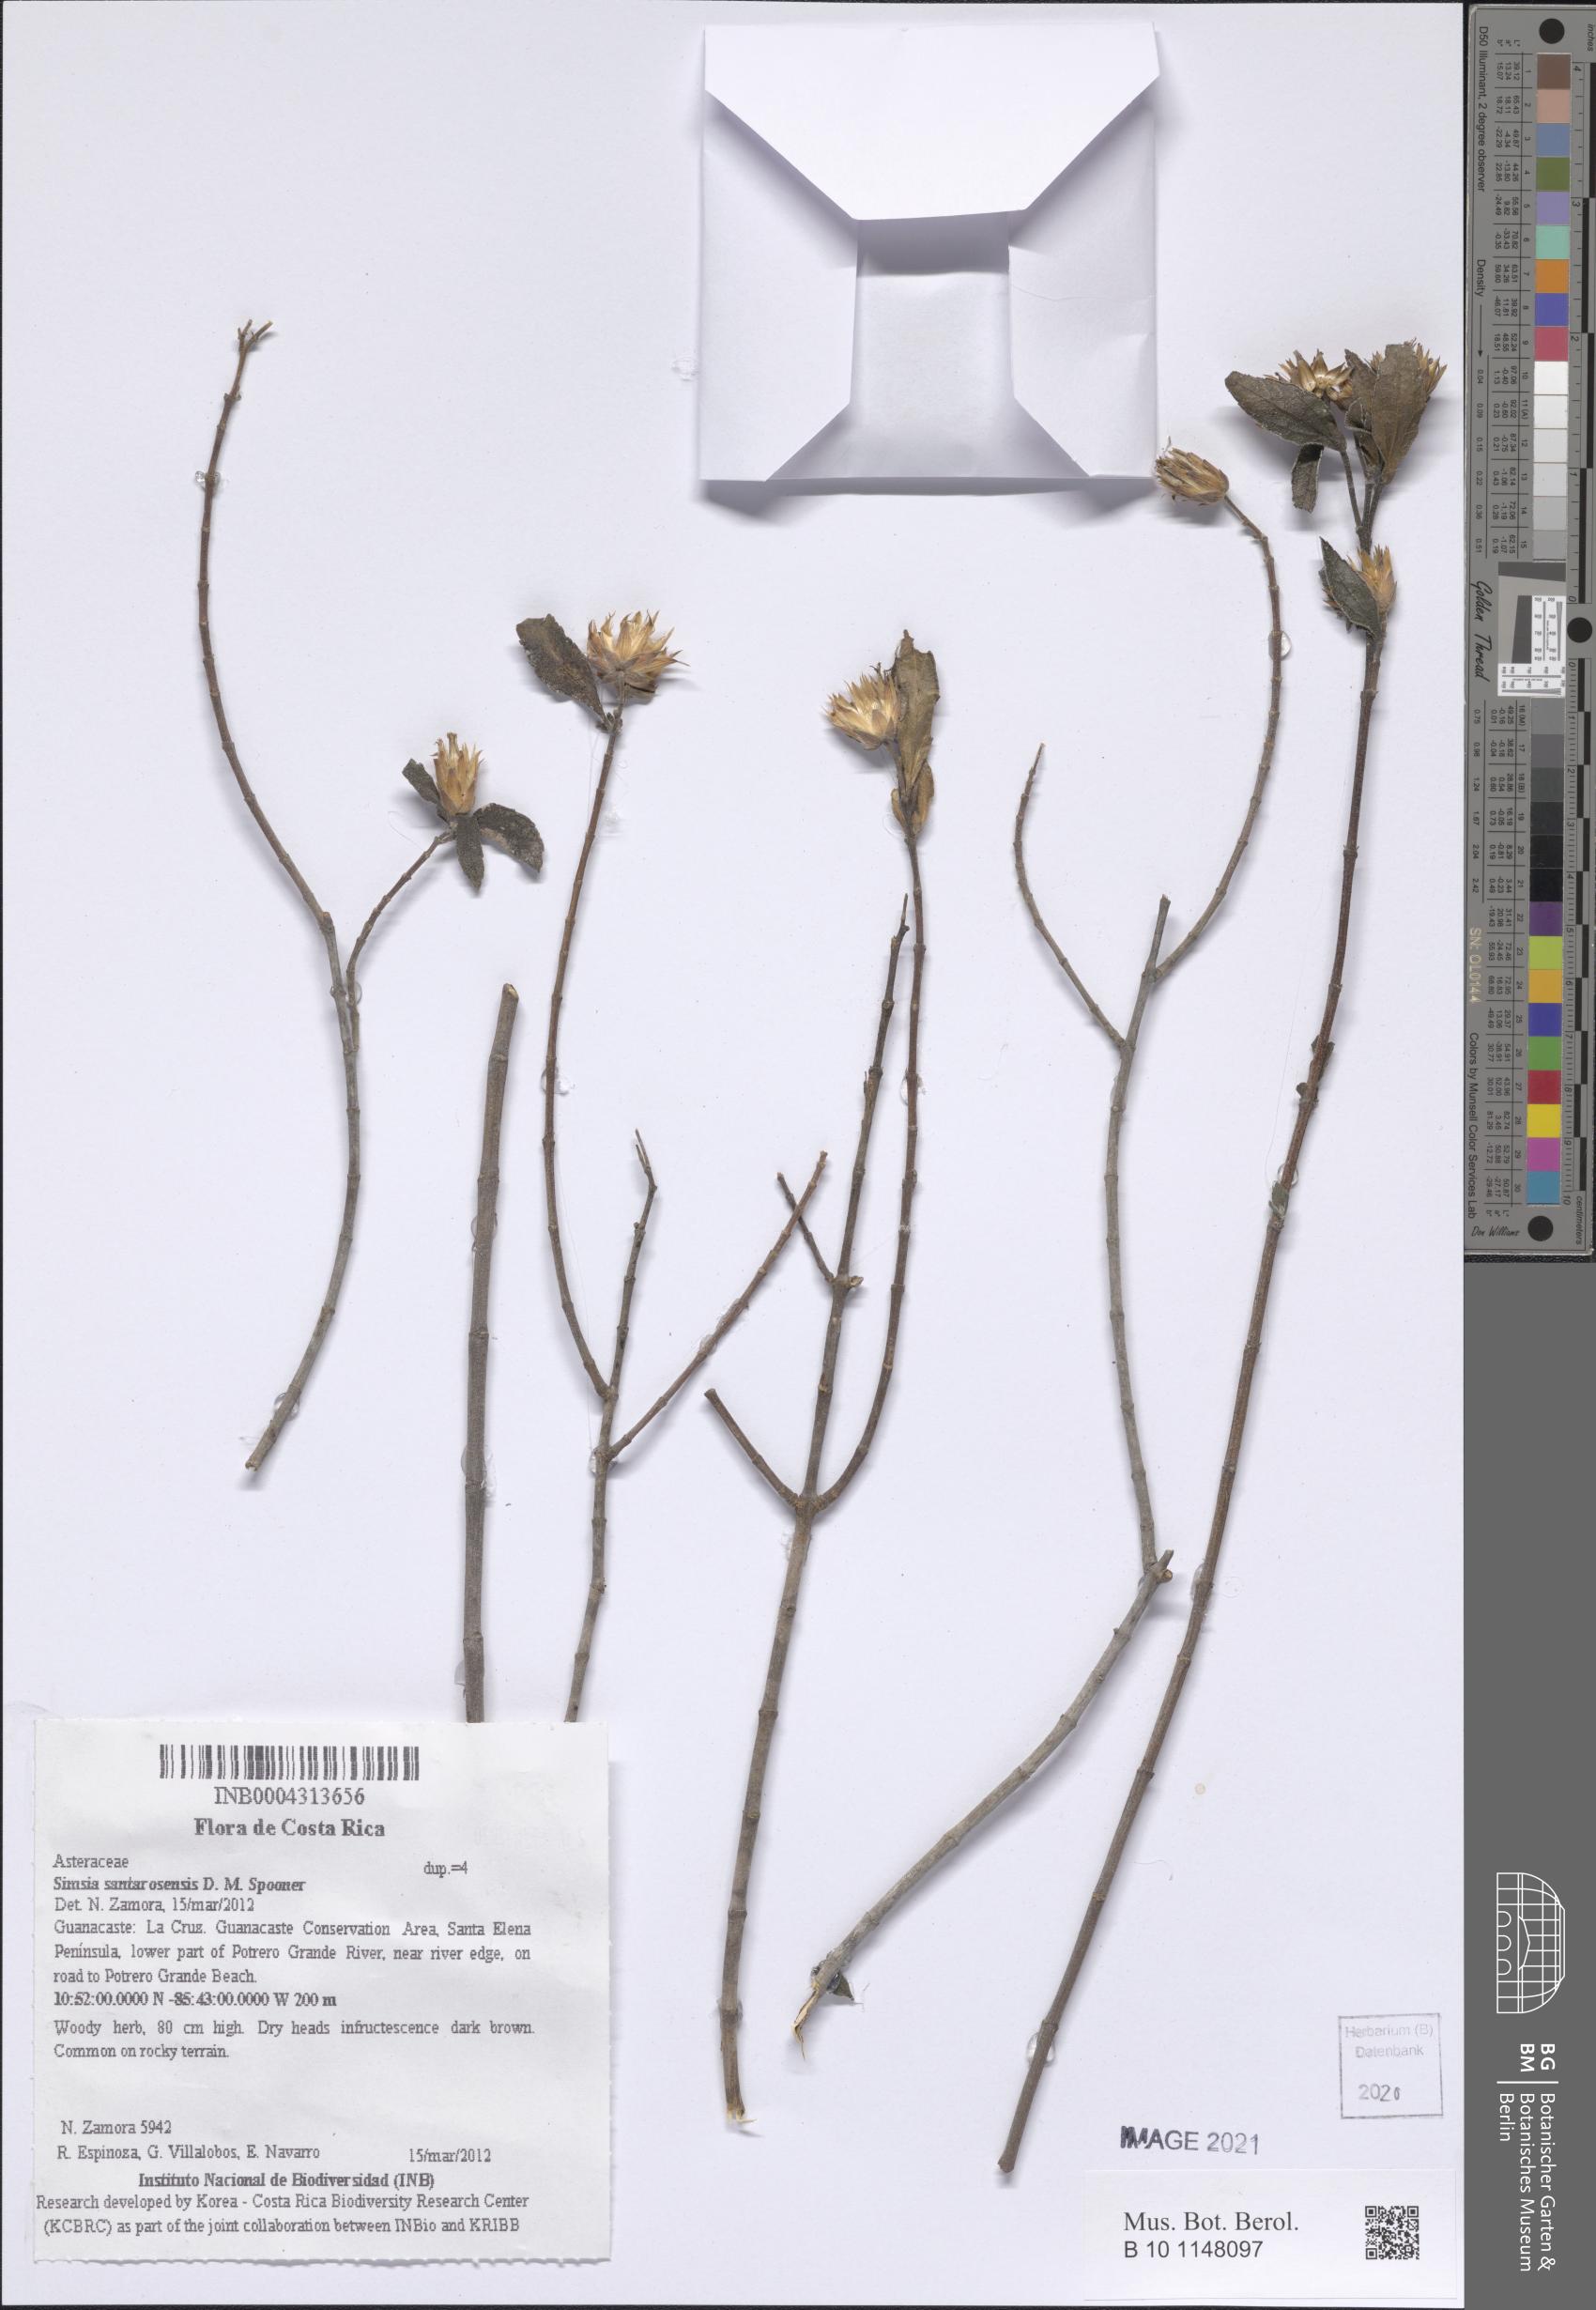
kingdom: Plantae
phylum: Tracheophyta
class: Magnoliopsida
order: Asterales
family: Asteraceae
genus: Simsia
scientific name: Simsia santarosensis
